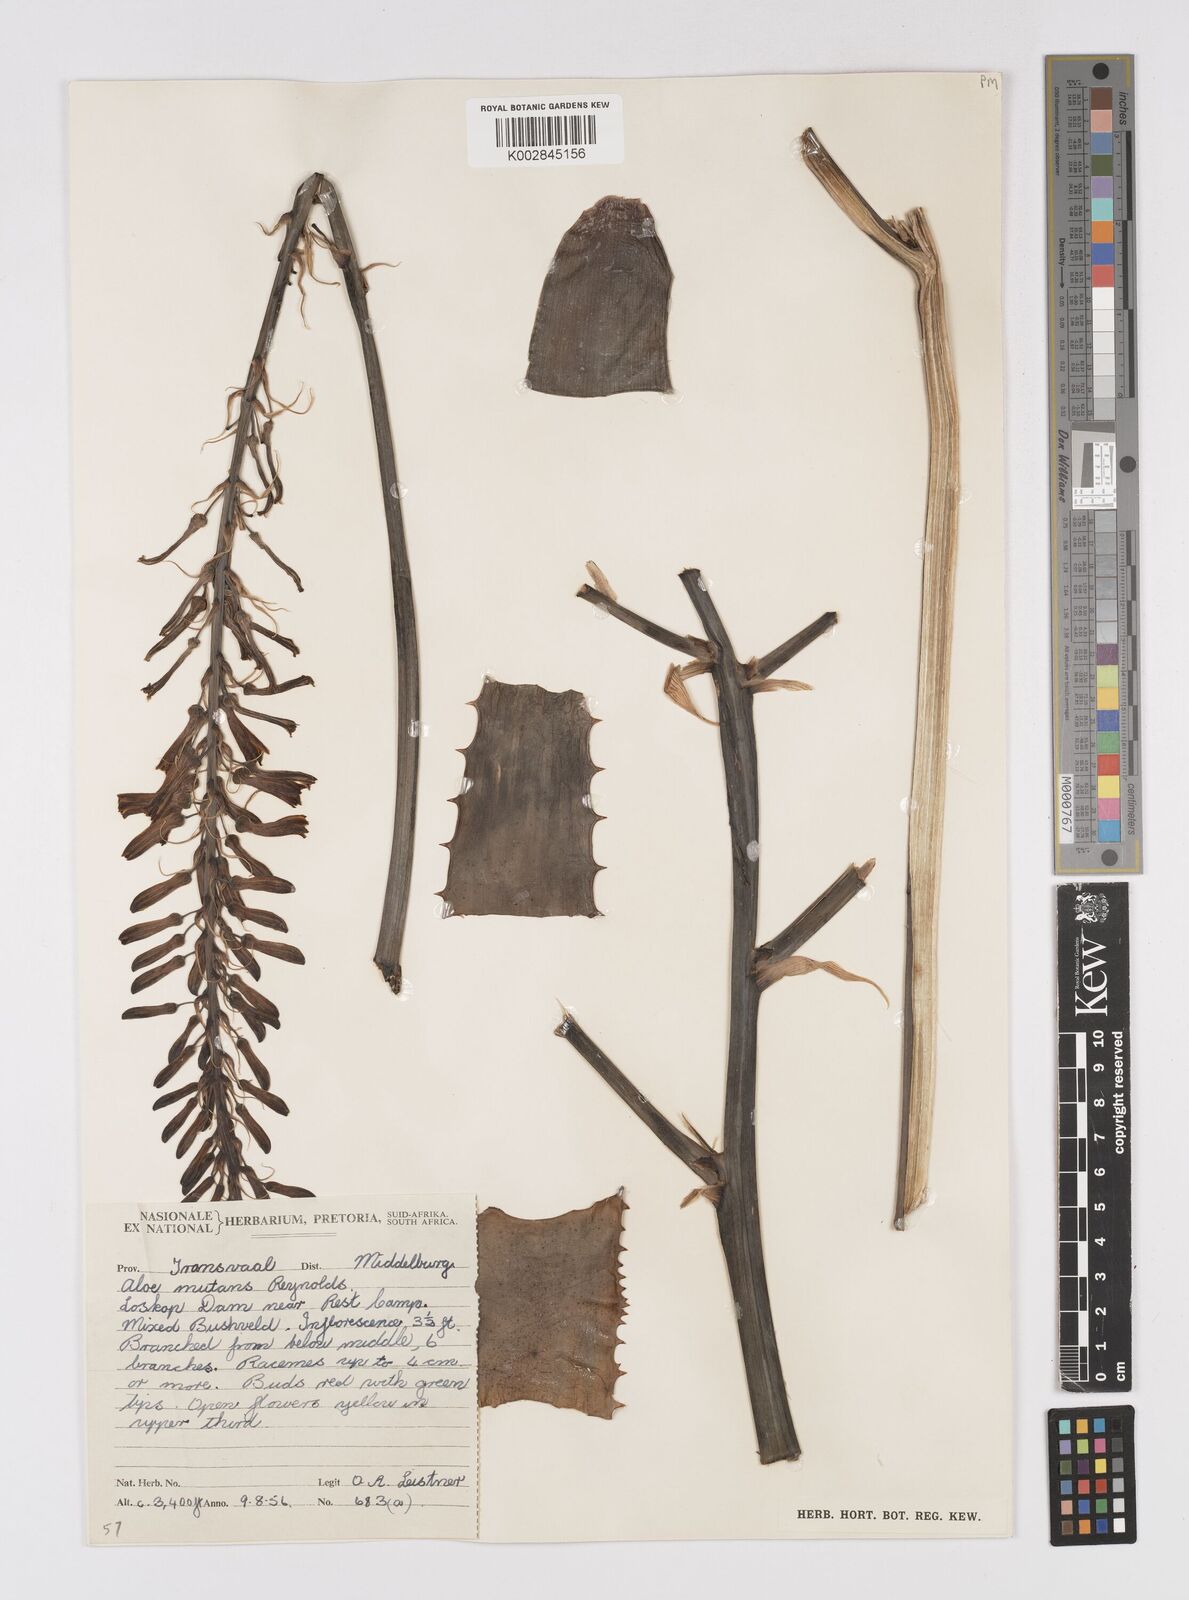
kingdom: Plantae
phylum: Tracheophyta
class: Liliopsida
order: Asparagales
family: Asphodelaceae
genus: Aloe
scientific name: Aloe davyana
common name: Spotted aloe
